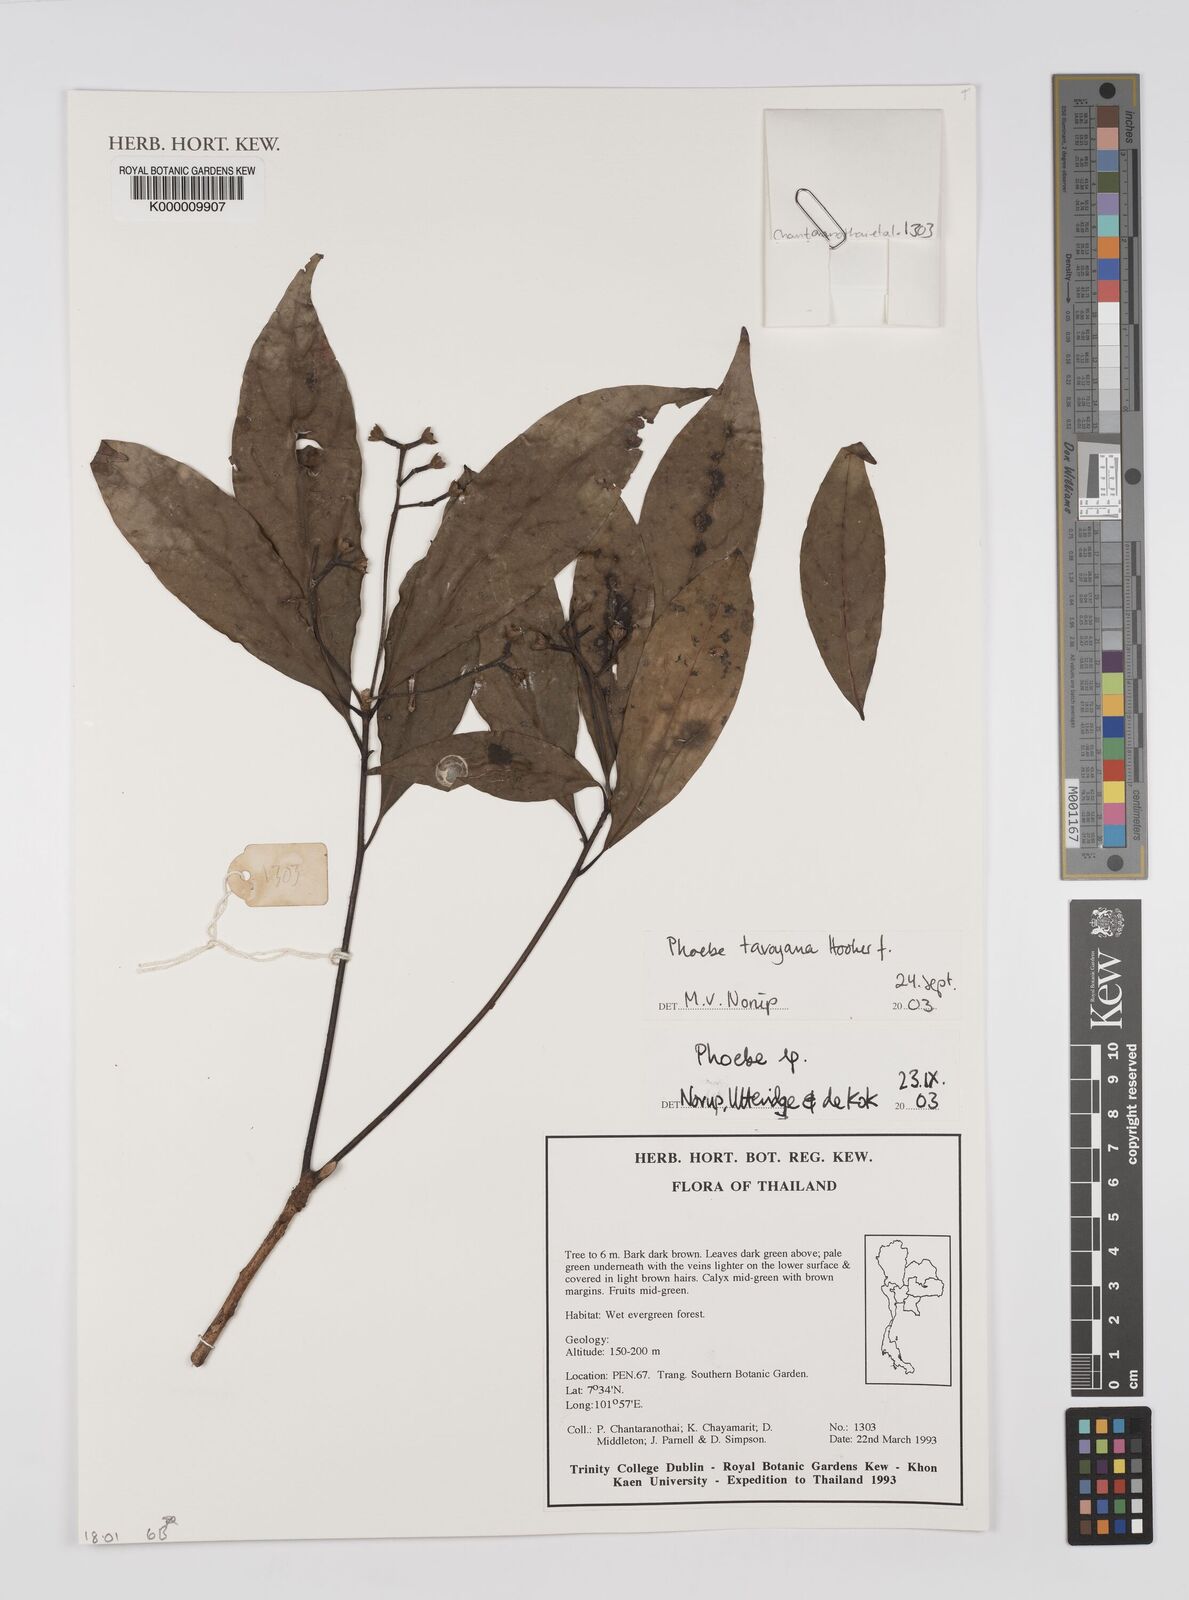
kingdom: Plantae
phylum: Tracheophyta
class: Magnoliopsida
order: Laurales
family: Lauraceae
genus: Phoebe
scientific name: Phoebe
